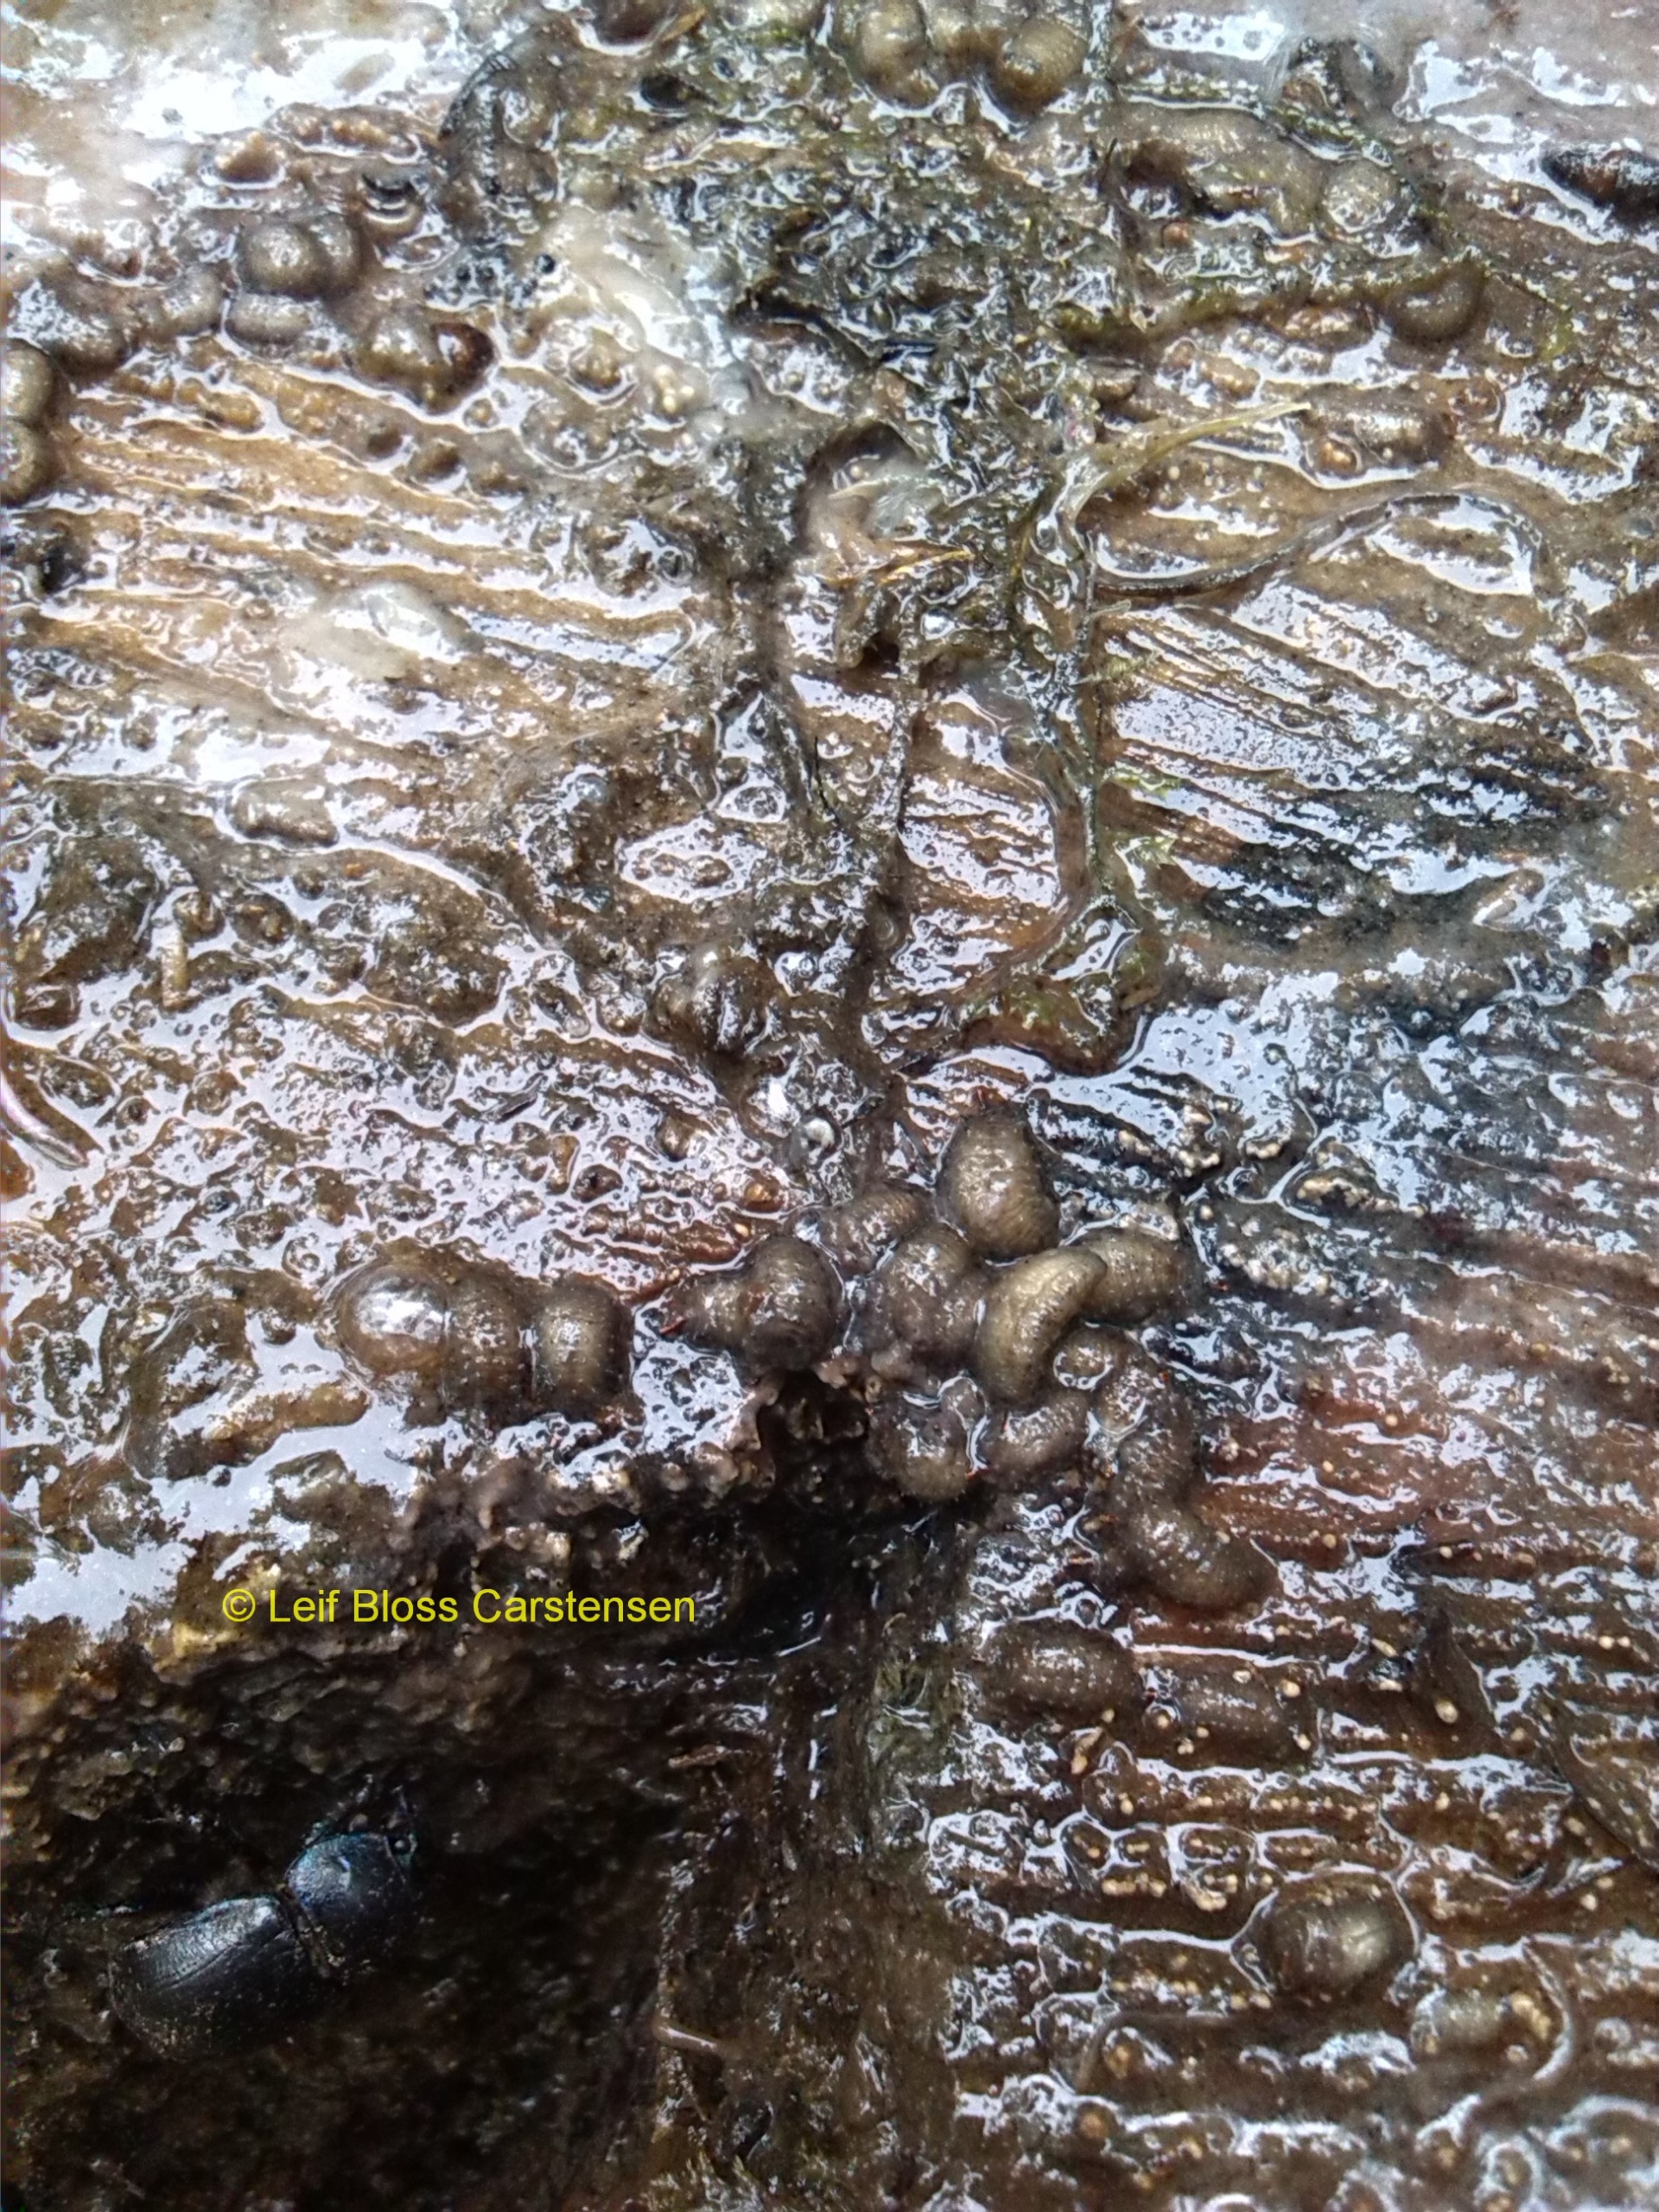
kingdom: Animalia
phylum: Arthropoda
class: Insecta
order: Diptera
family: Syrphidae
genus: Brachyopa
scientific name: Brachyopa panzeri
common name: Panzers træsaftsvirreflue
